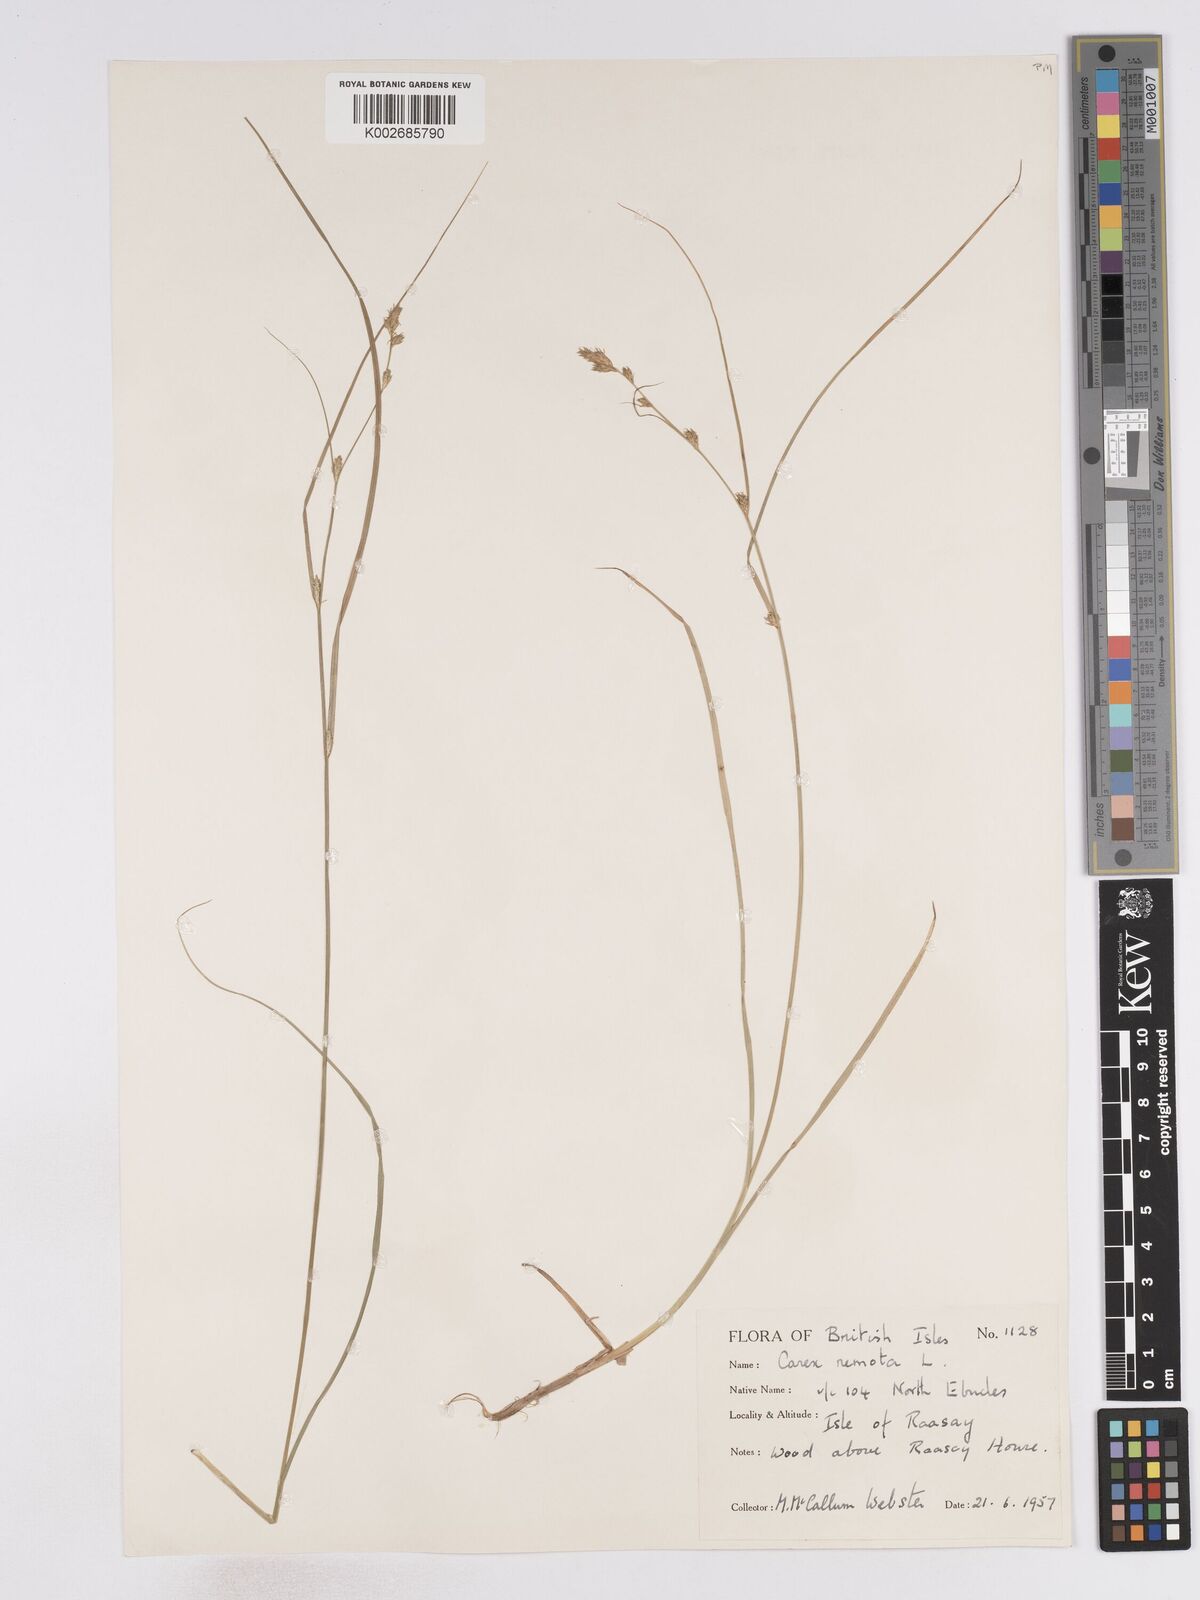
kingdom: Plantae
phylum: Tracheophyta
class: Liliopsida
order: Poales
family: Cyperaceae
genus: Carex
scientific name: Carex remota
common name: Remote sedge
